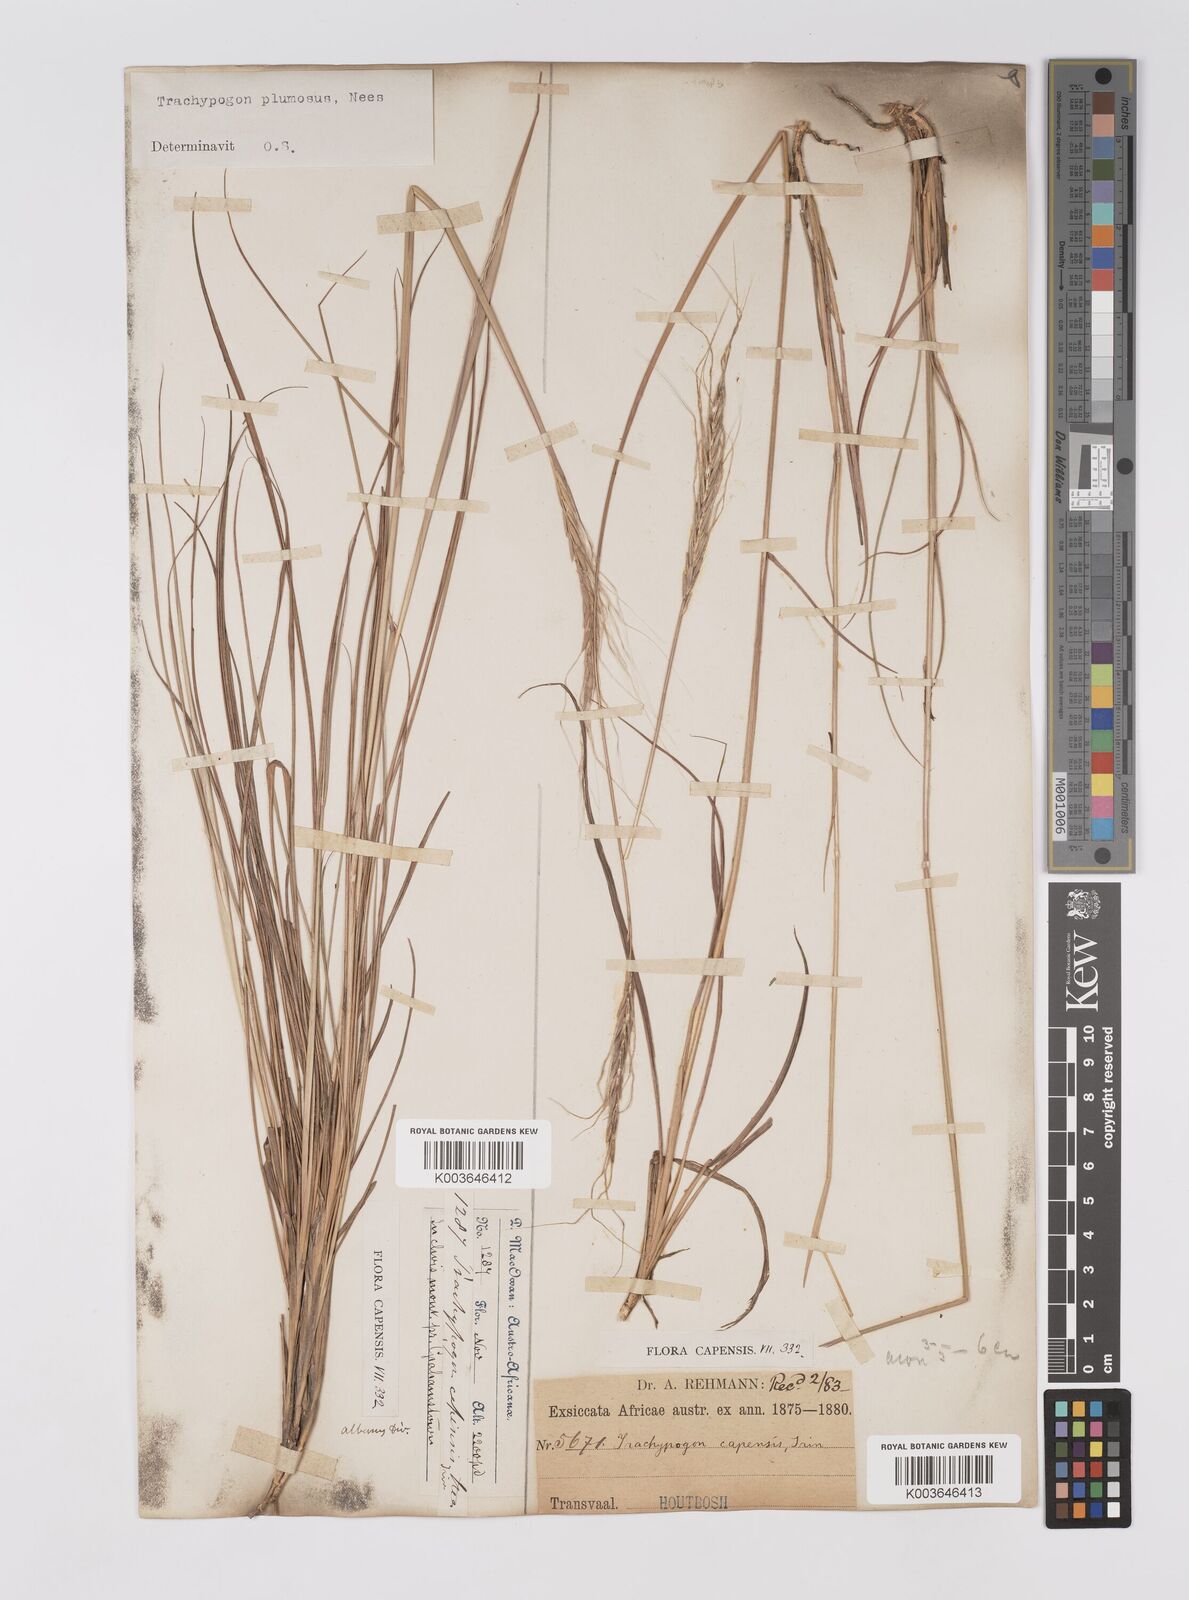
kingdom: Plantae
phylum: Tracheophyta
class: Liliopsida
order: Poales
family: Poaceae
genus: Trachypogon
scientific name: Trachypogon spicatus
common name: Crinkle-awn
